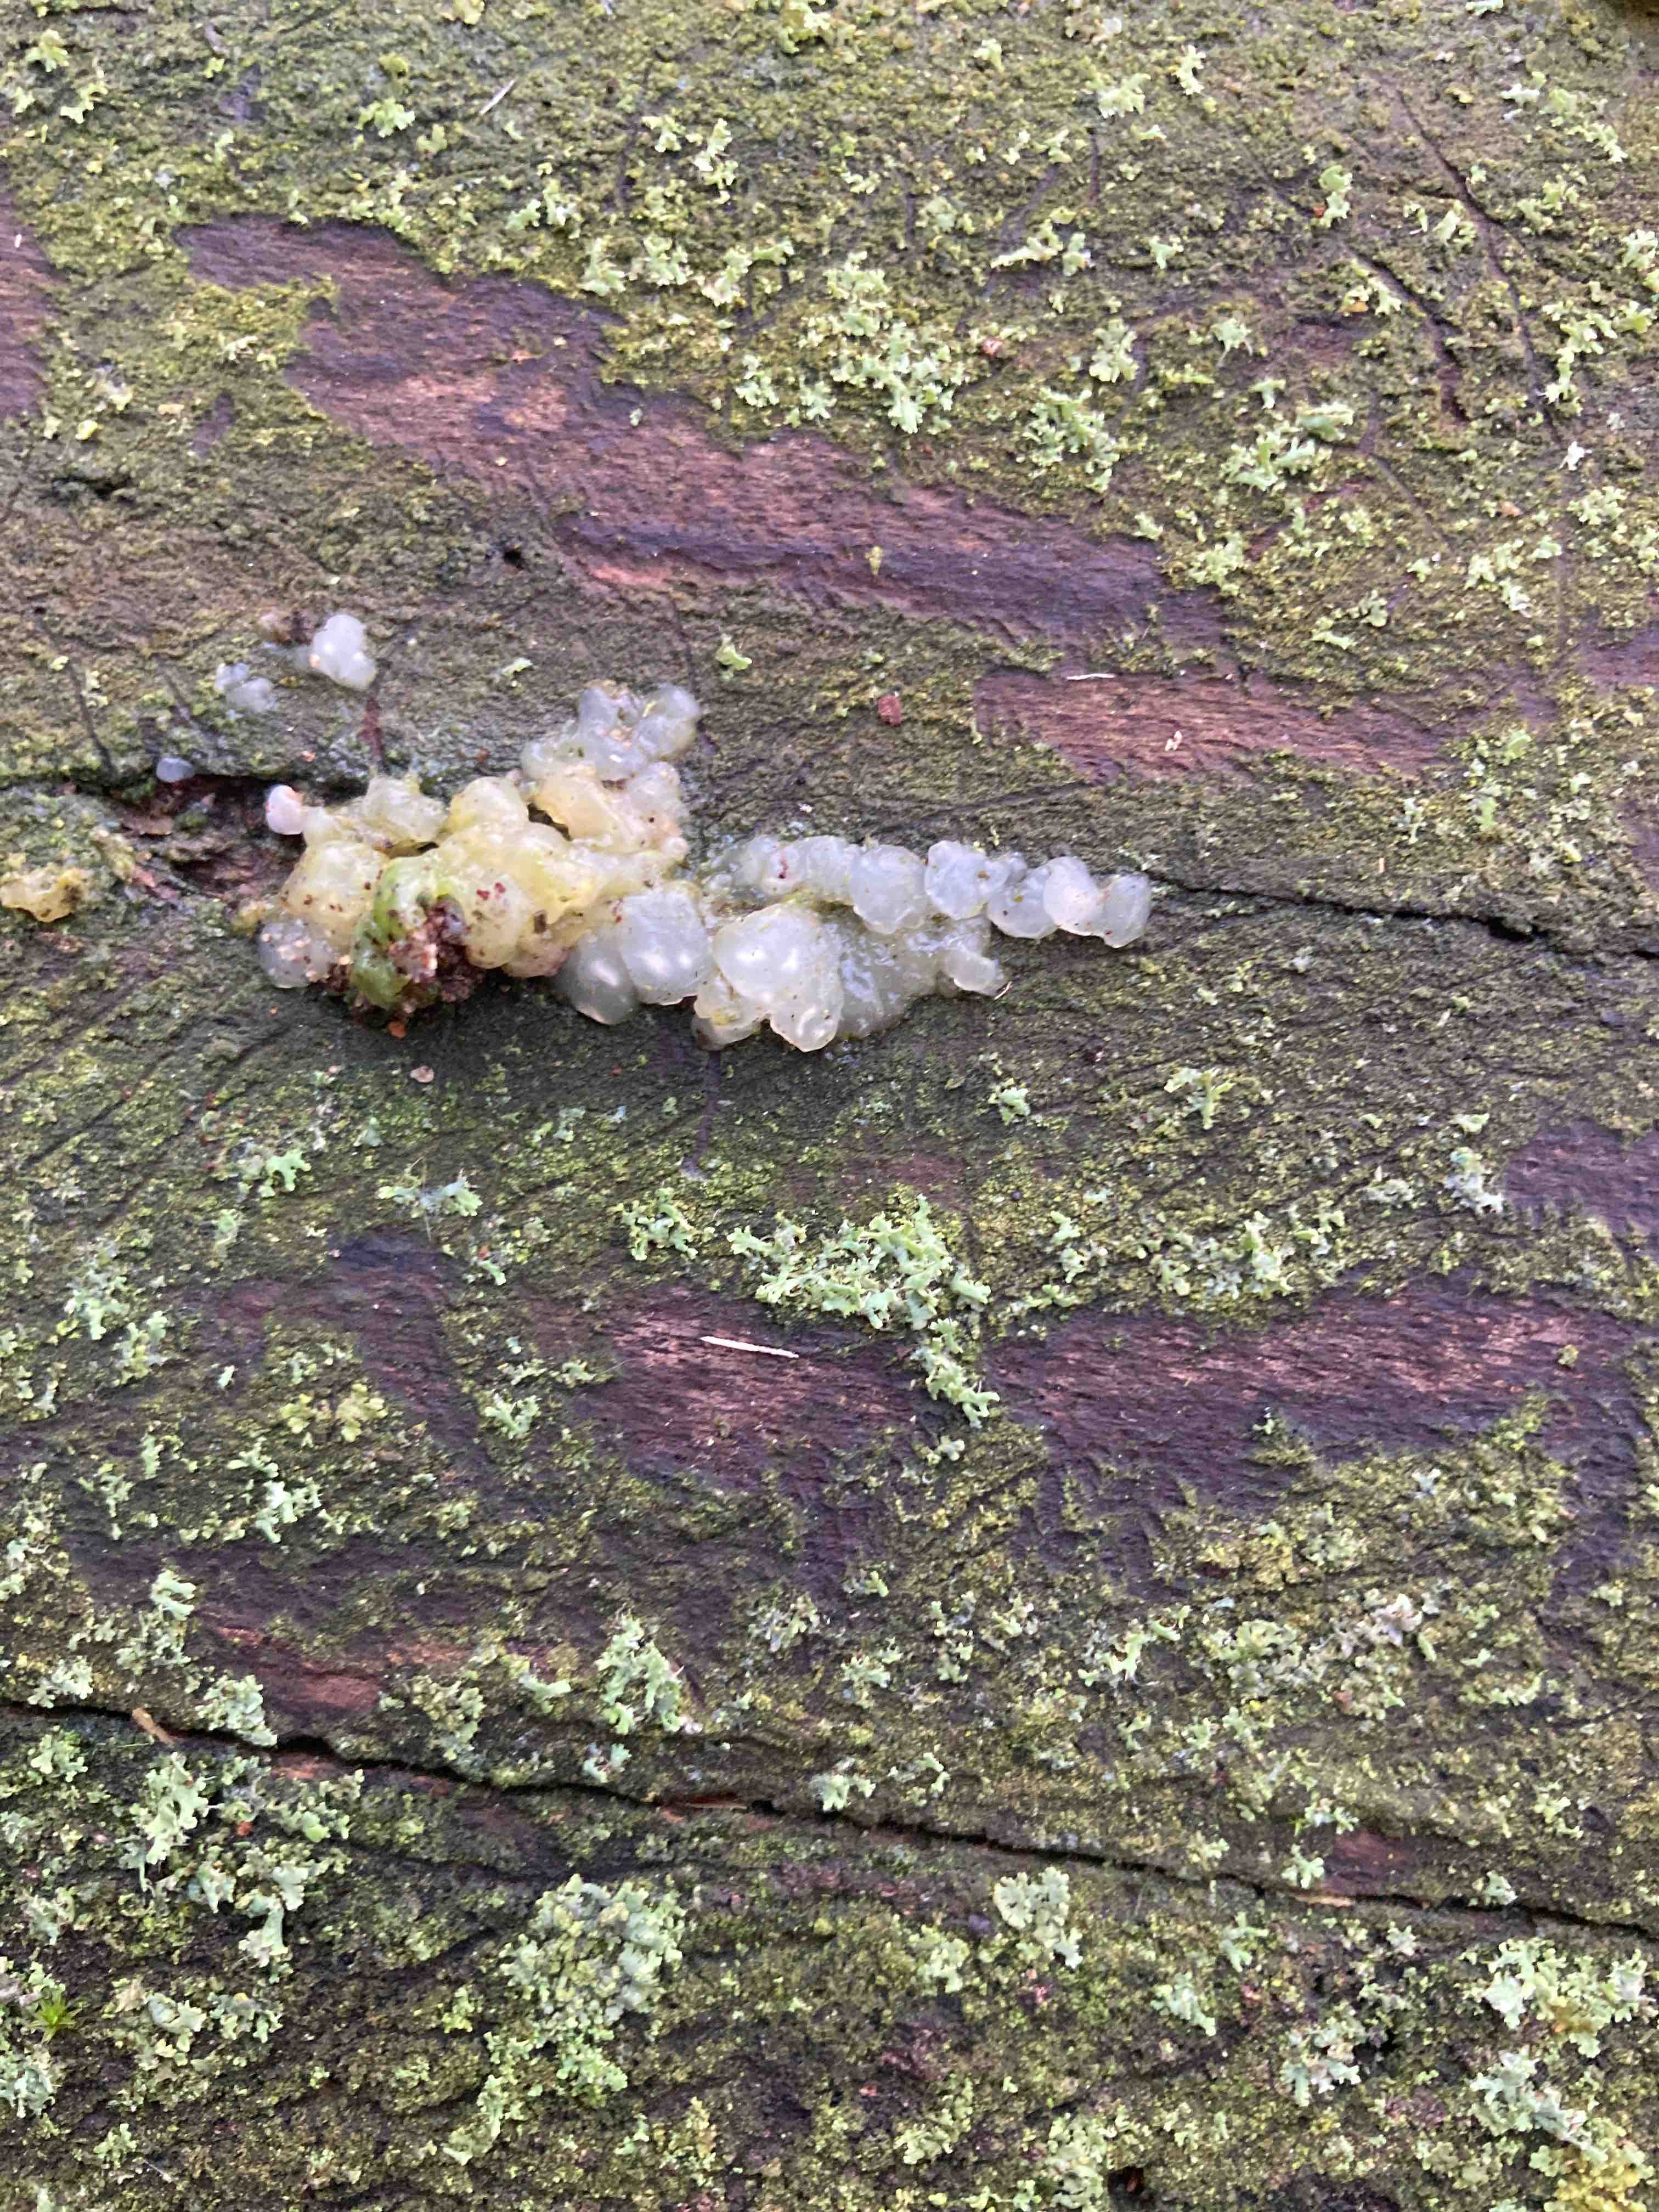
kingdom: Fungi
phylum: Basidiomycota
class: Agaricomycetes
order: Auriculariales
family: Hyaloriaceae
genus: Myxarium
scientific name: Myxarium nucleatum
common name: klar bævretop
